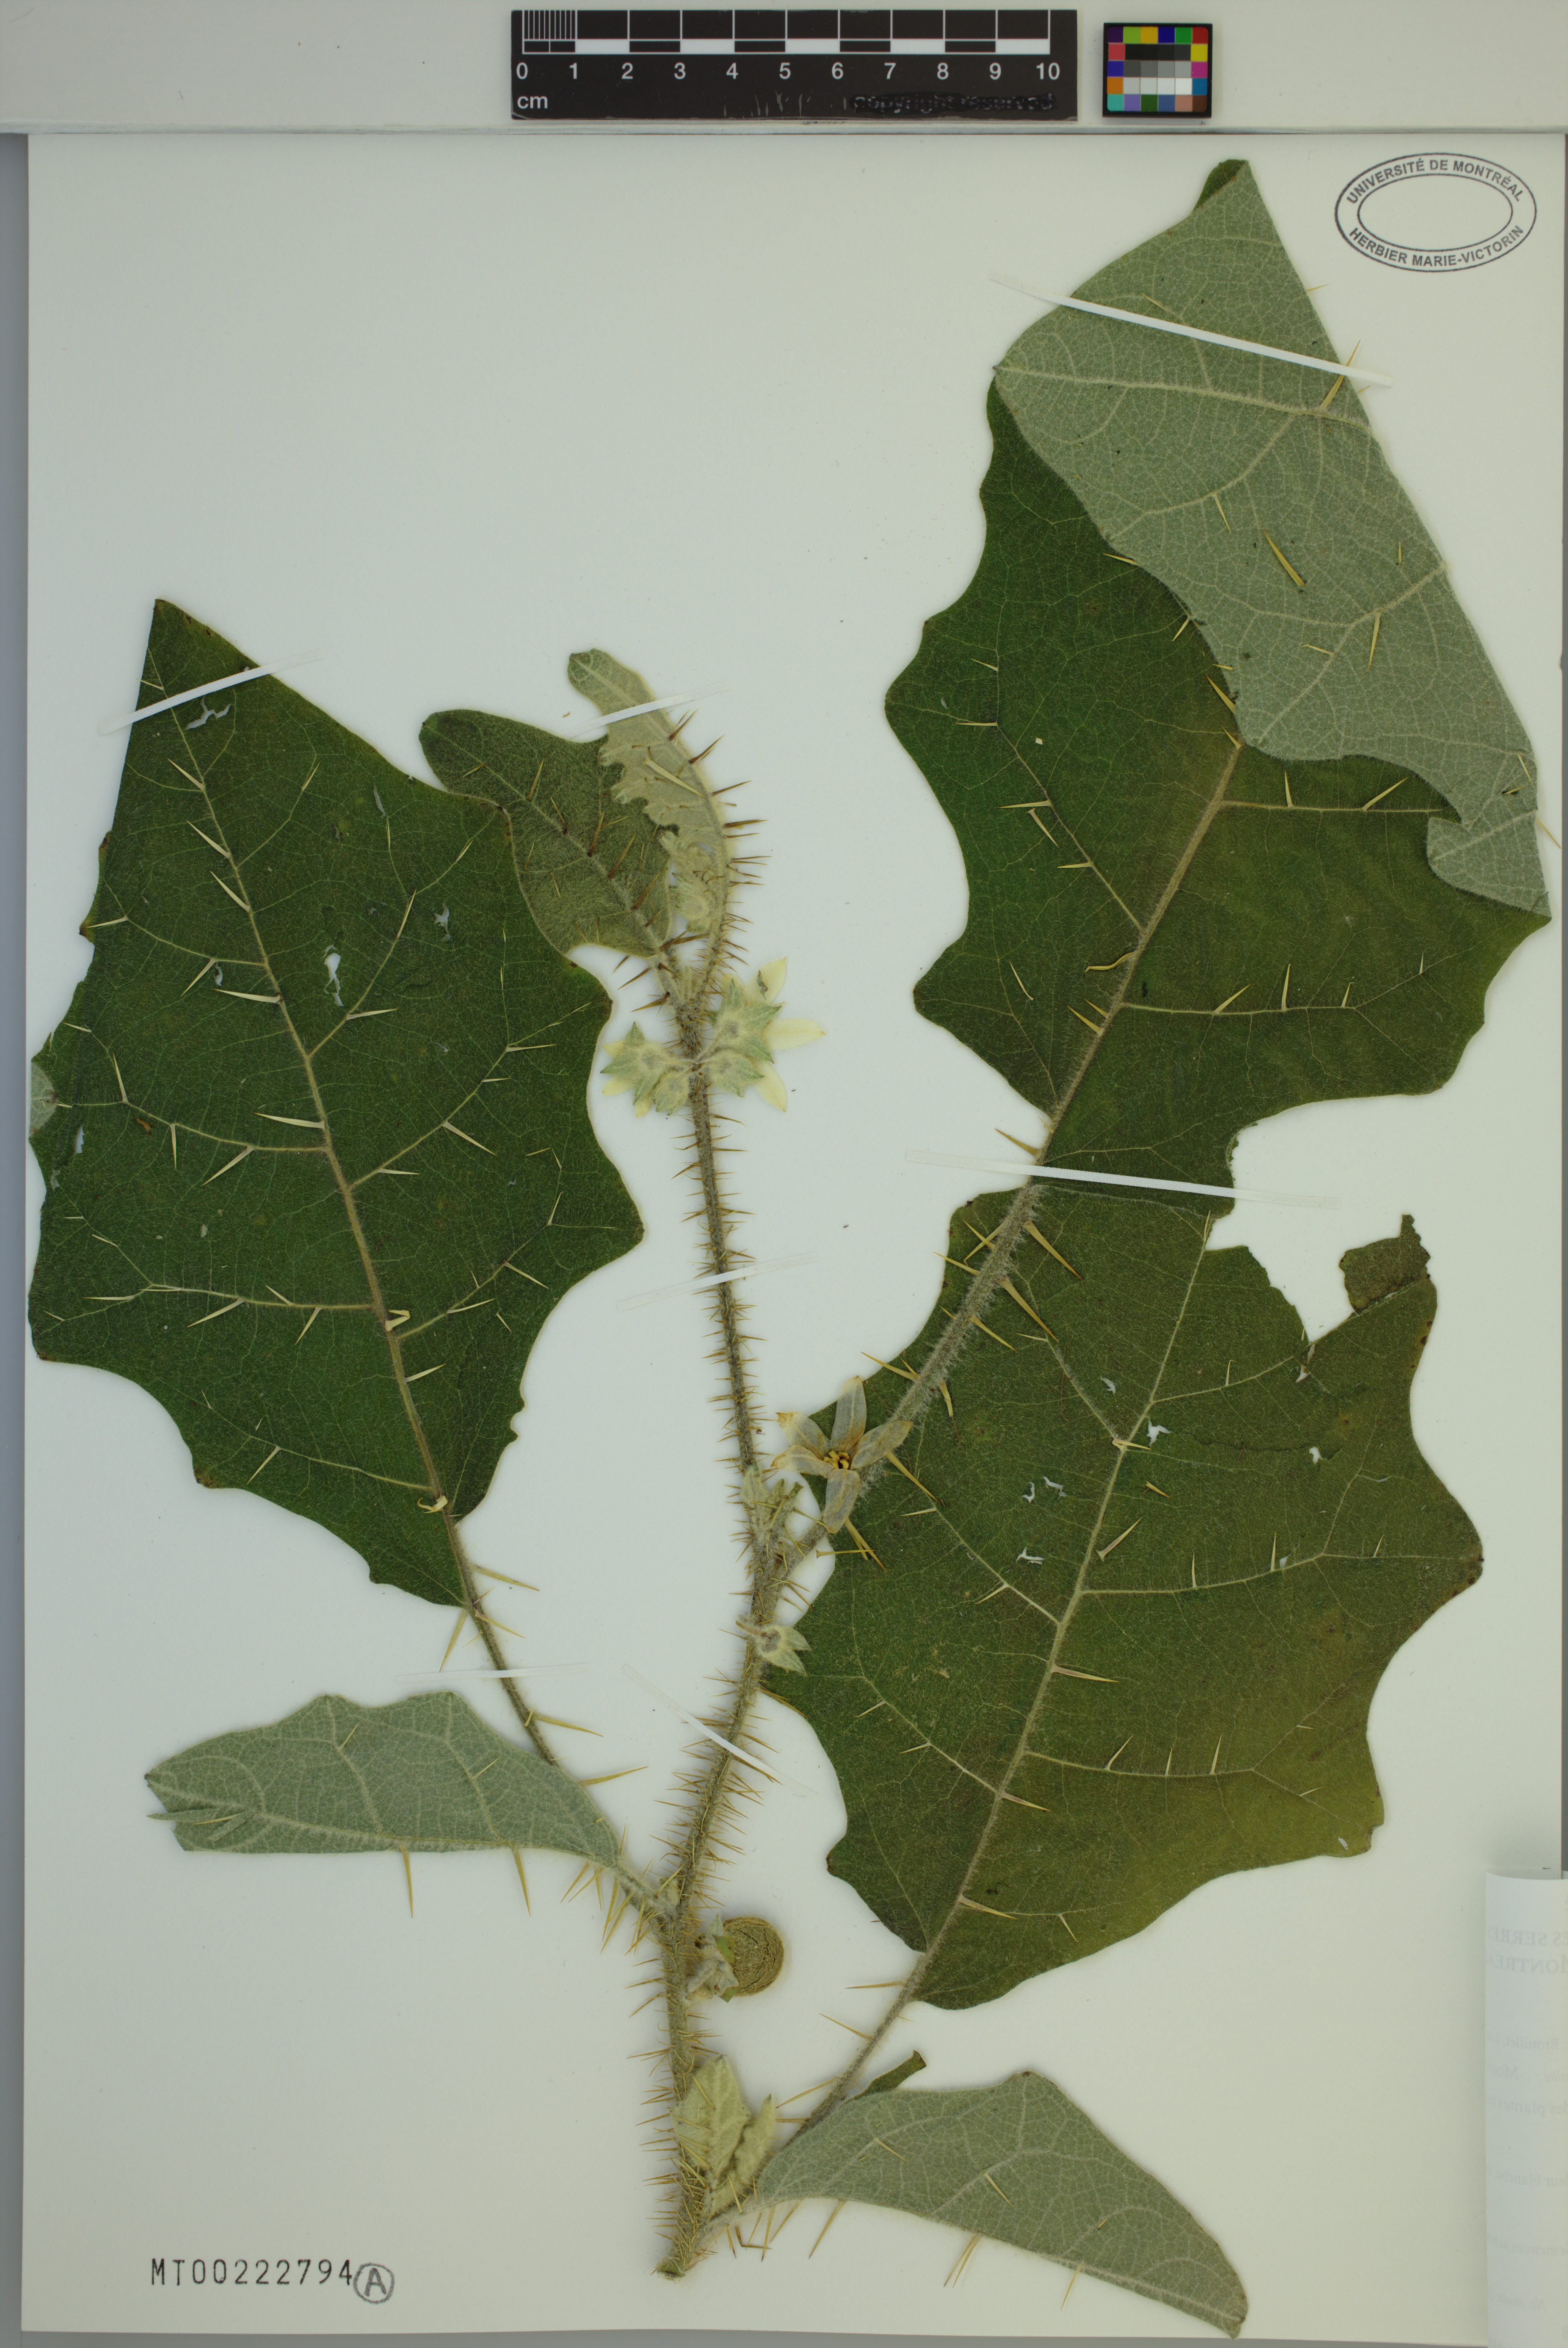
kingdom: Plantae
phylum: Tracheophyta
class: Magnoliopsida
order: Solanales
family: Solanaceae
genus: Solanum
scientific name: Solanum quitoense
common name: Quito-orange
